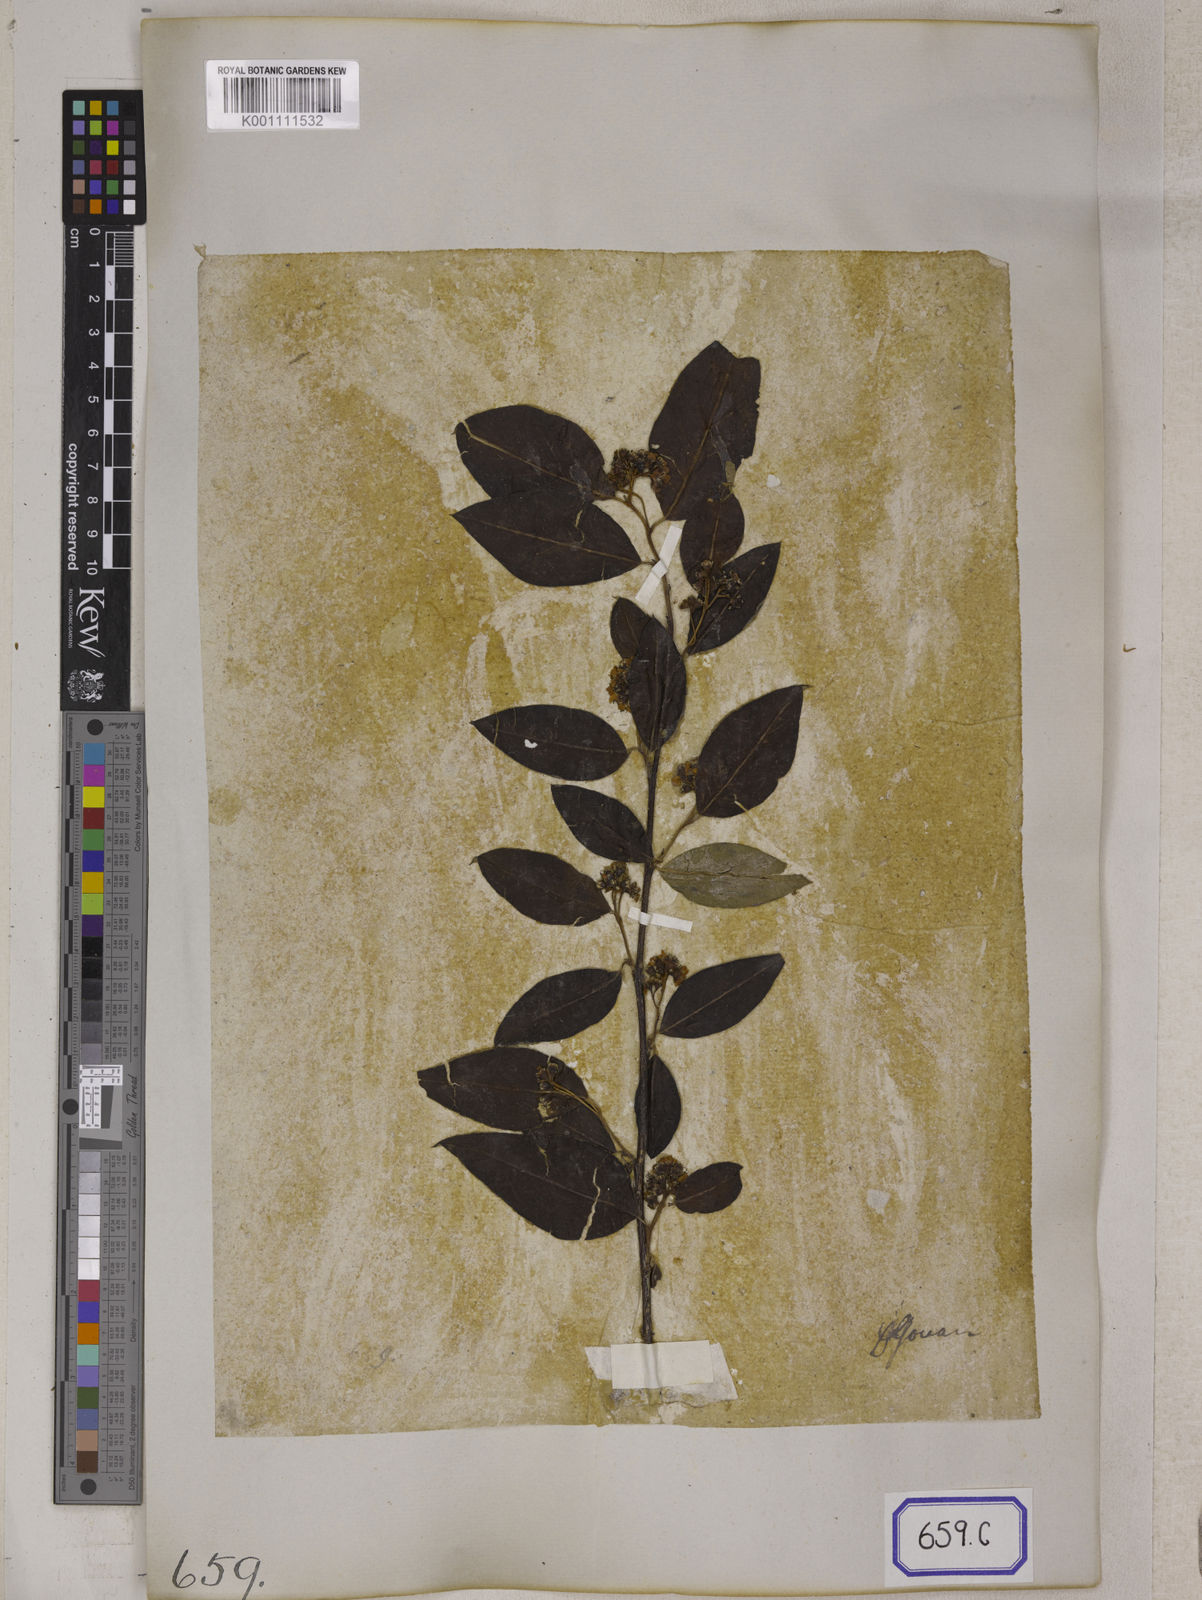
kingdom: Plantae
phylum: Tracheophyta
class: Magnoliopsida
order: Rosales
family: Rosaceae
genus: Cotoneaster
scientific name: Cotoneaster
